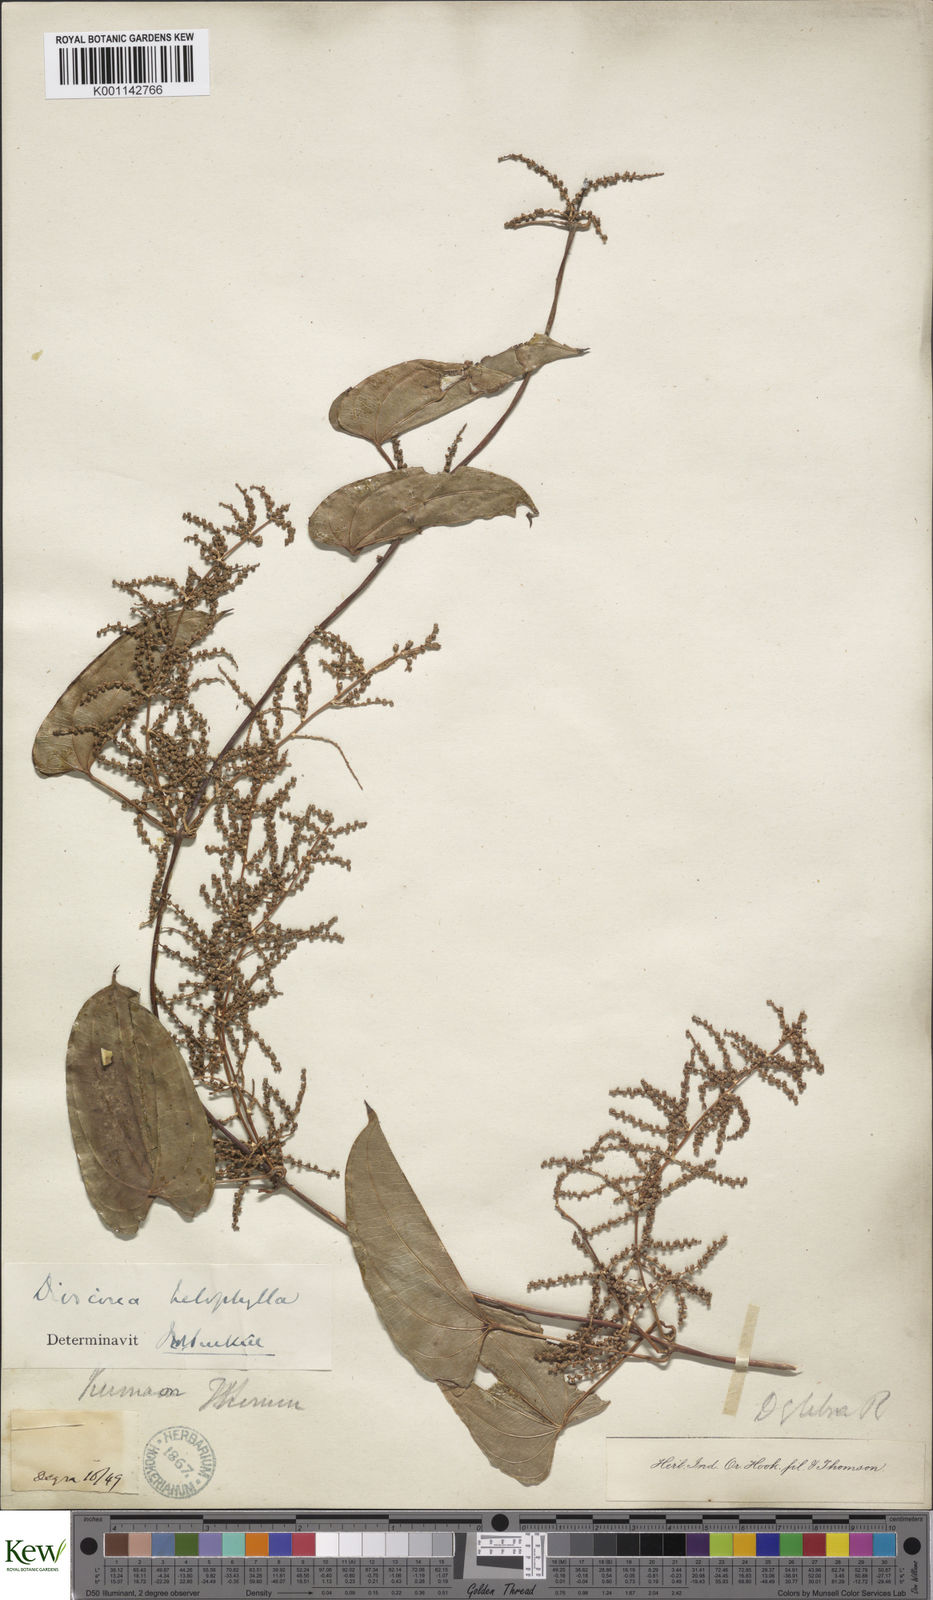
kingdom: Plantae
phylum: Tracheophyta
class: Liliopsida
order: Dioscoreales
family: Dioscoreaceae
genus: Dioscorea
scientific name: Dioscorea belophylla
